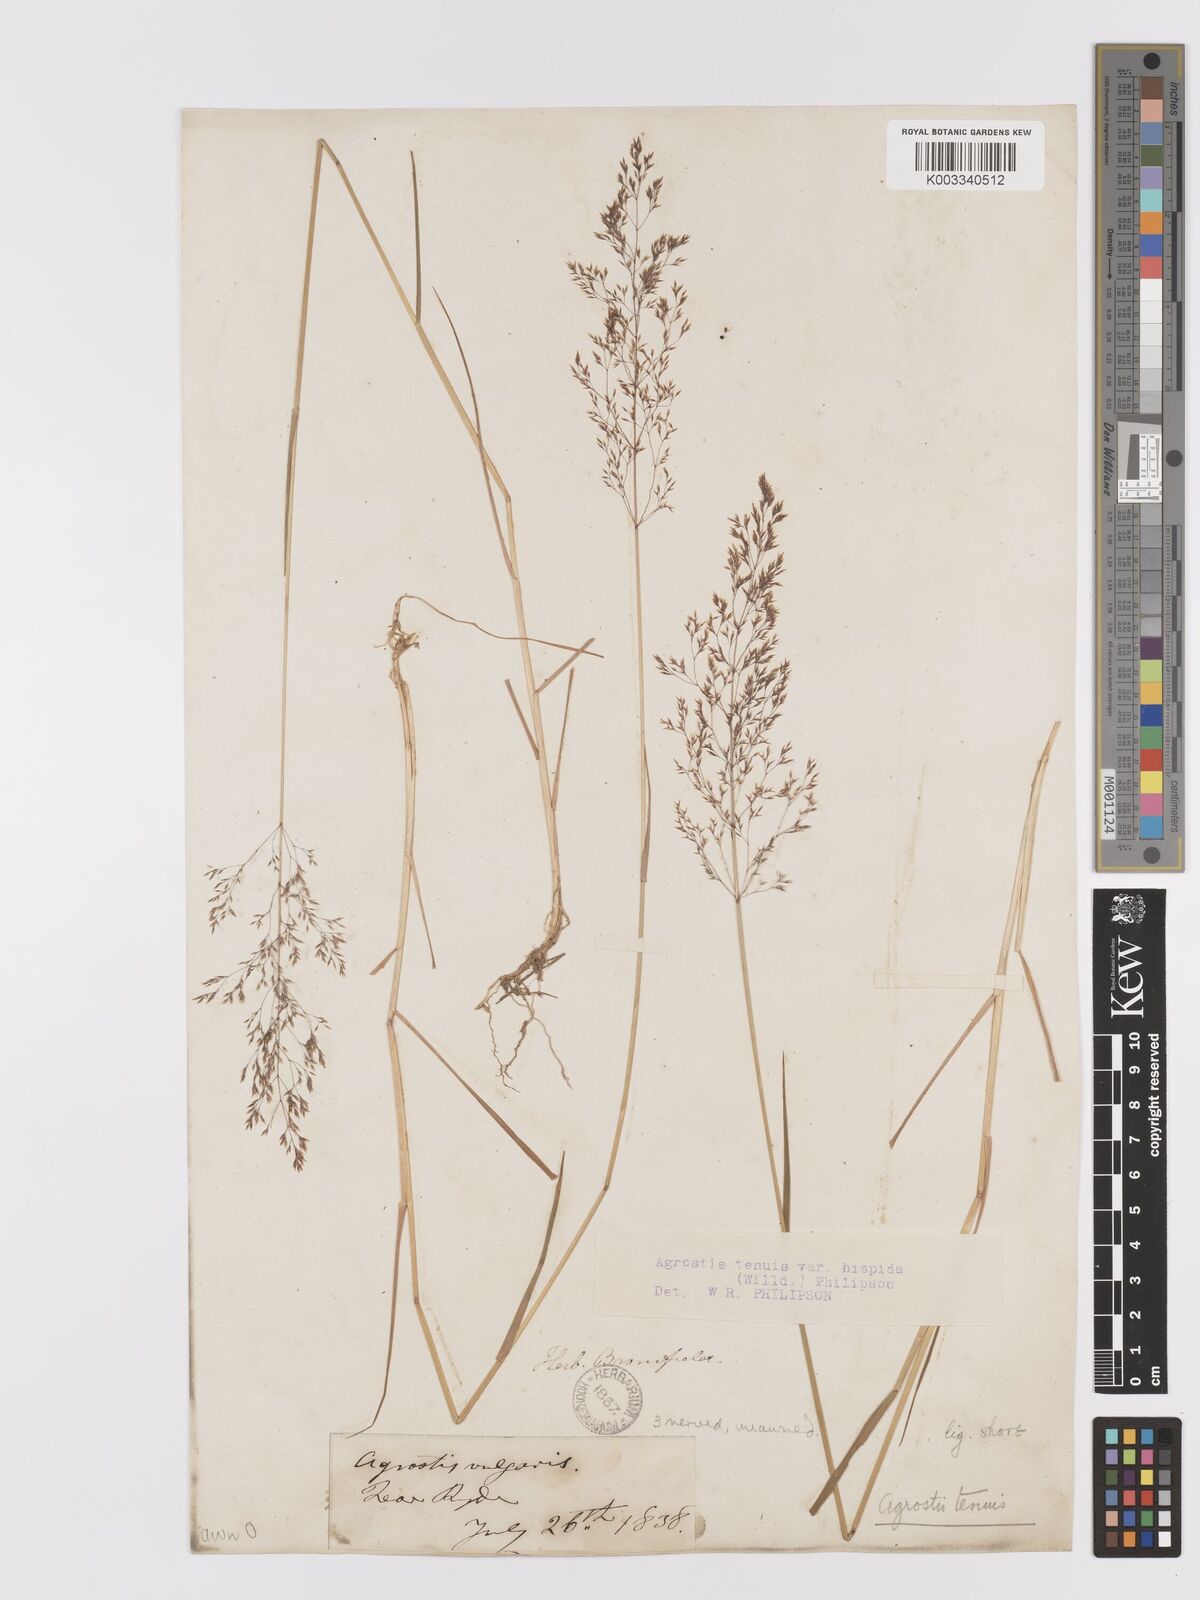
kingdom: Plantae
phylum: Tracheophyta
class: Liliopsida
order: Poales
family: Poaceae
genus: Agrostis
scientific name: Agrostis capillaris
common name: Colonial bentgrass
